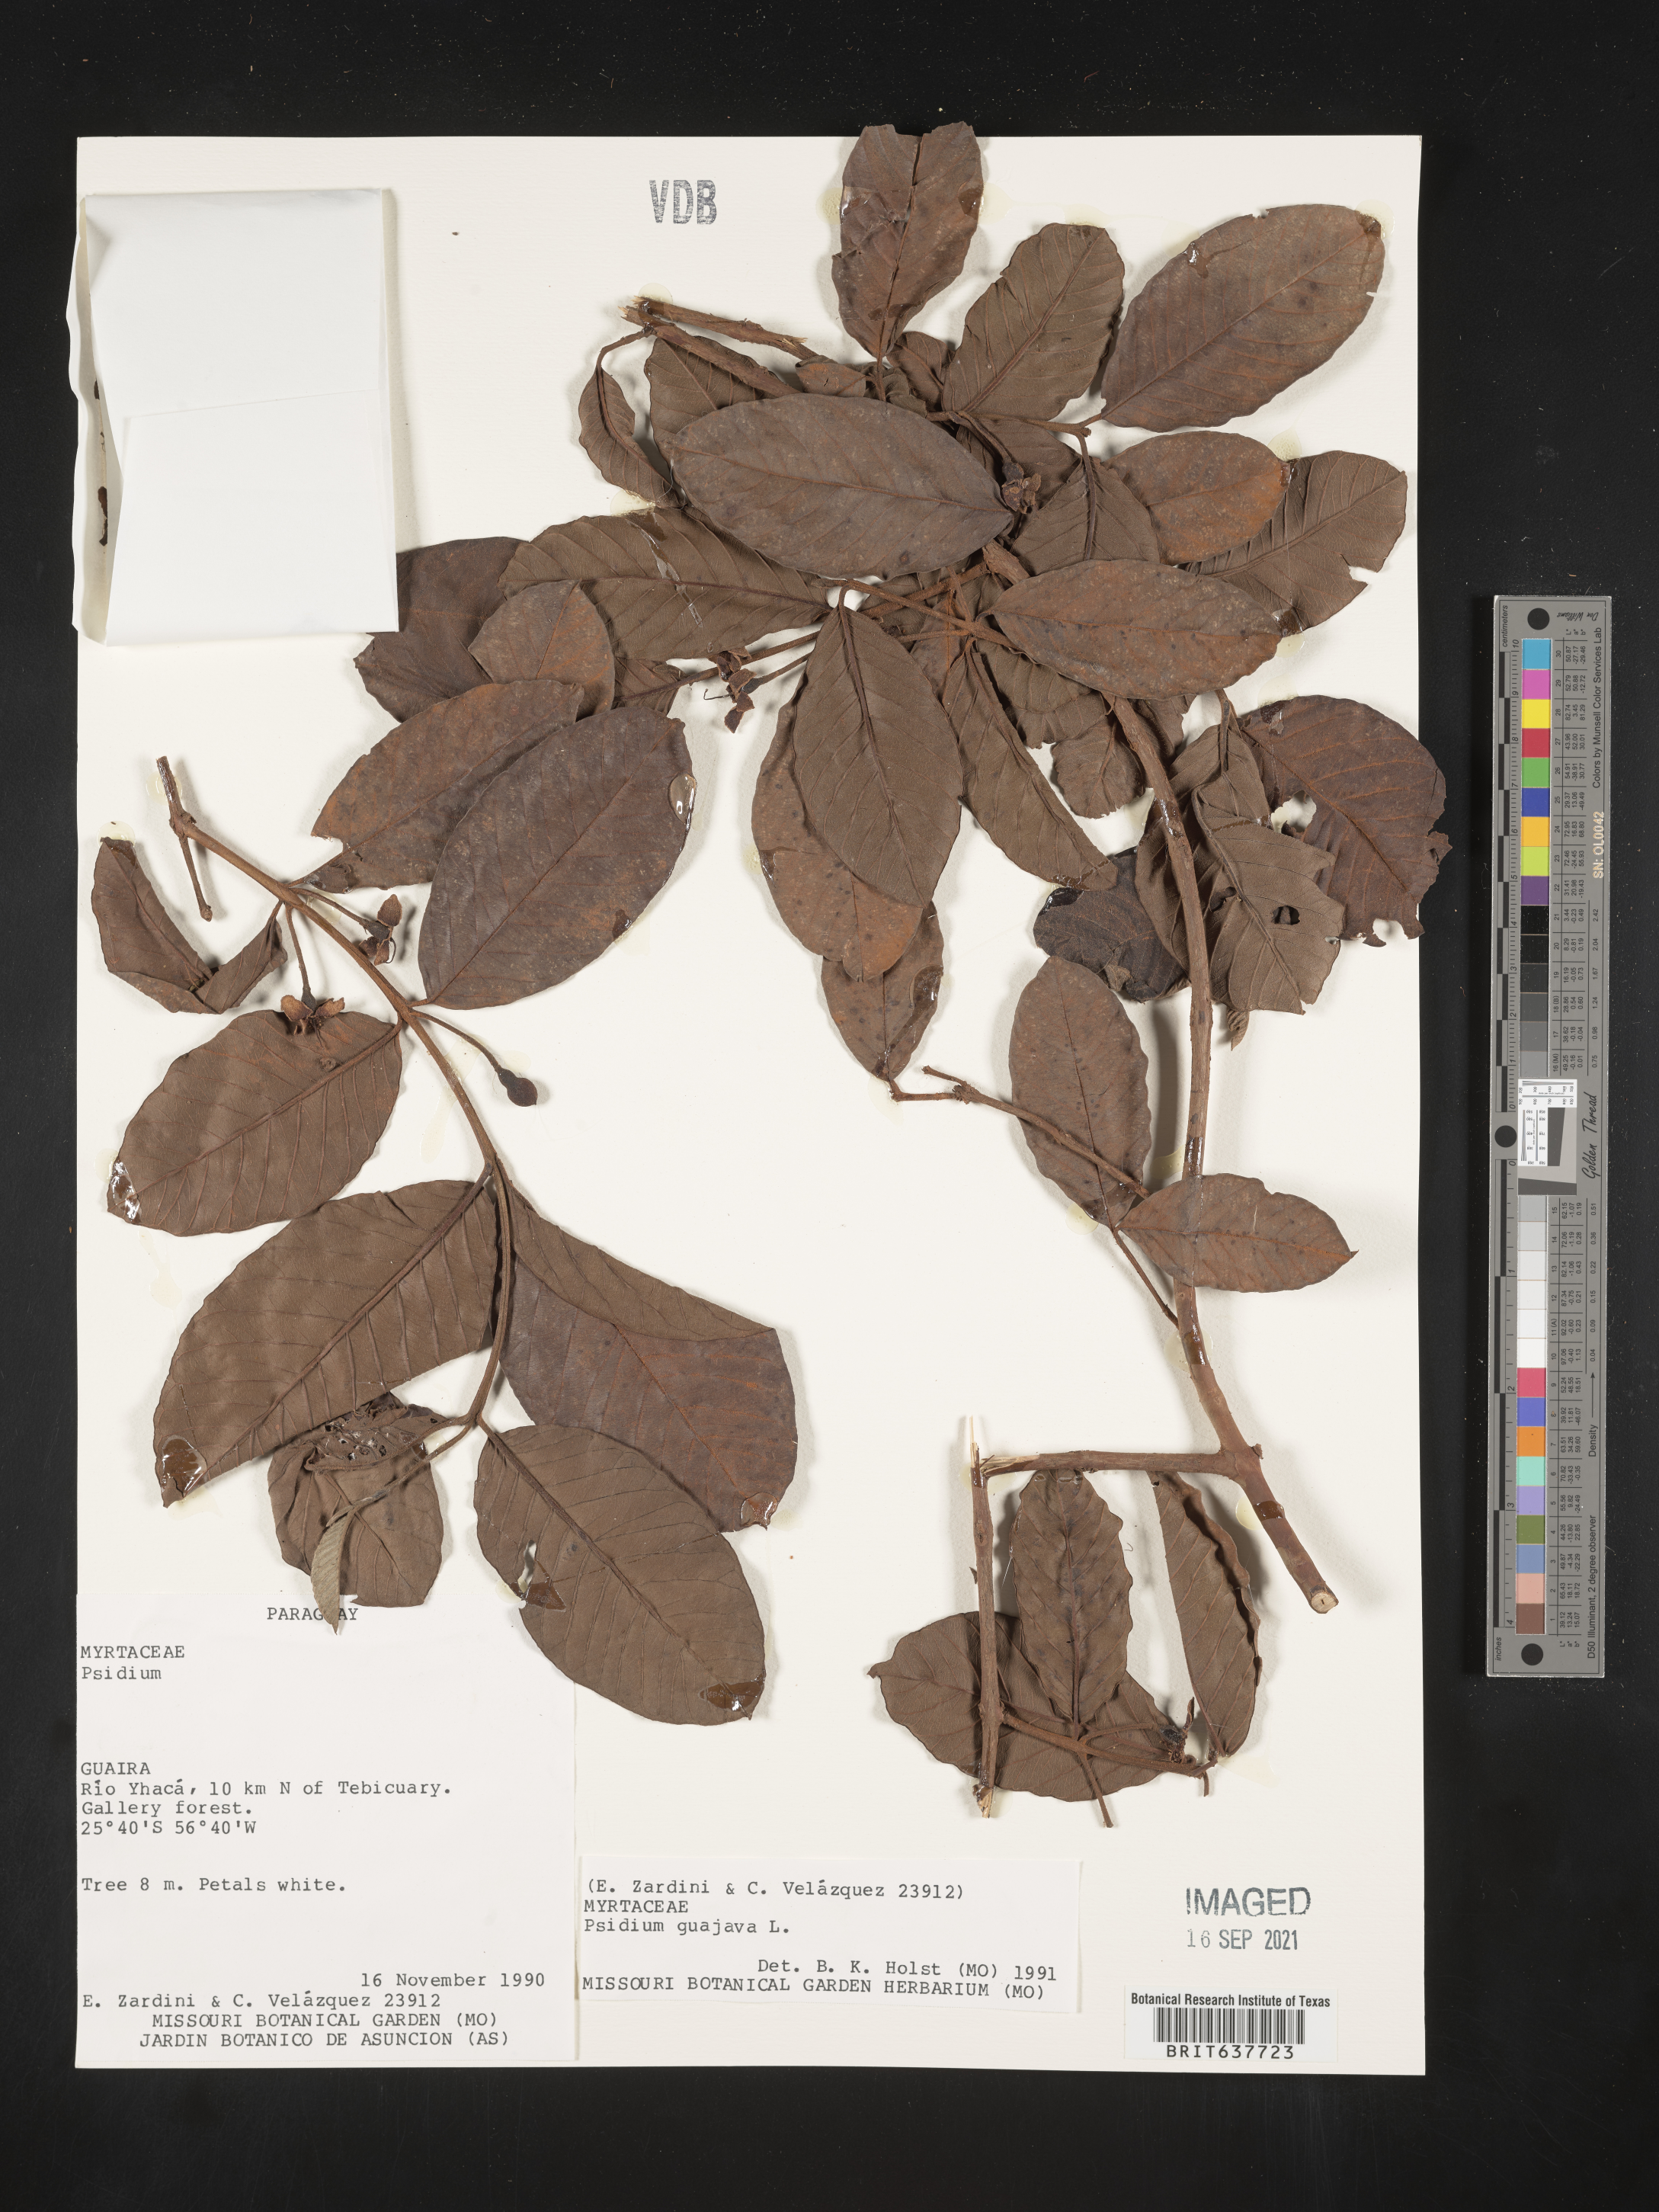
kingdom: Plantae
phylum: Tracheophyta
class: Magnoliopsida
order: Myrtales
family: Myrtaceae
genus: Psidium
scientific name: Psidium
